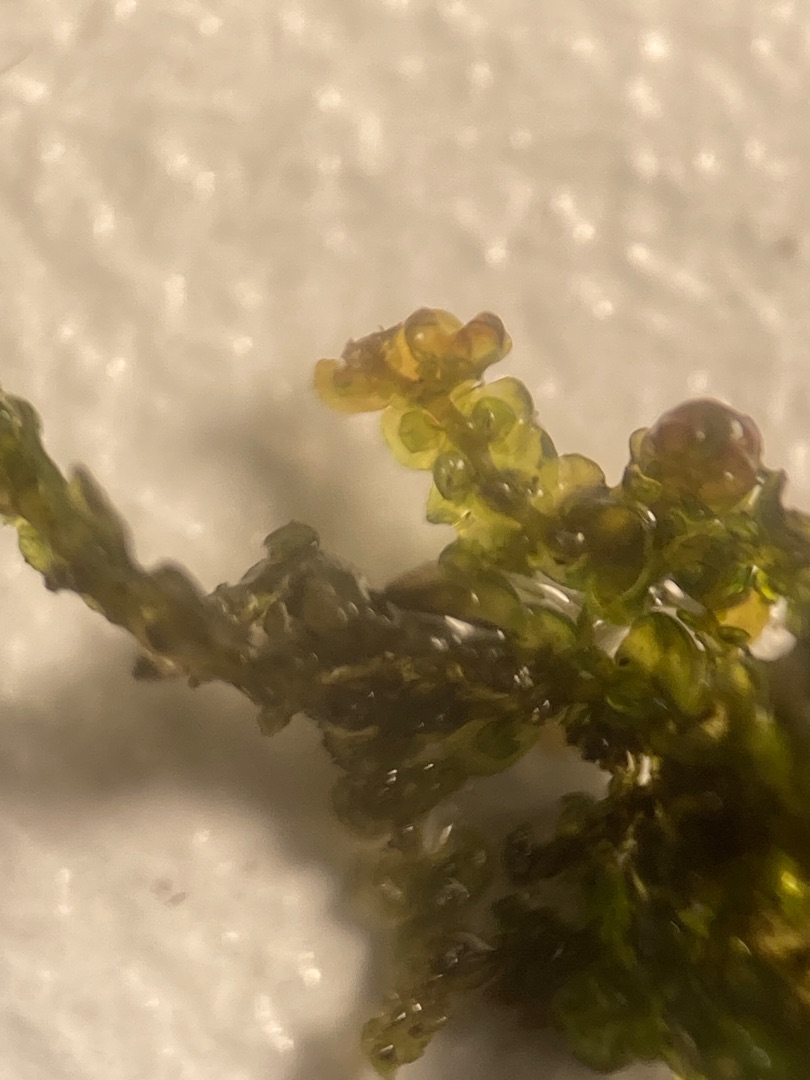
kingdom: Plantae
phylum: Marchantiophyta
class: Jungermanniopsida
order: Porellales
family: Frullaniaceae
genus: Frullania
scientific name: Frullania dilatata
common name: Mat bronzemos
